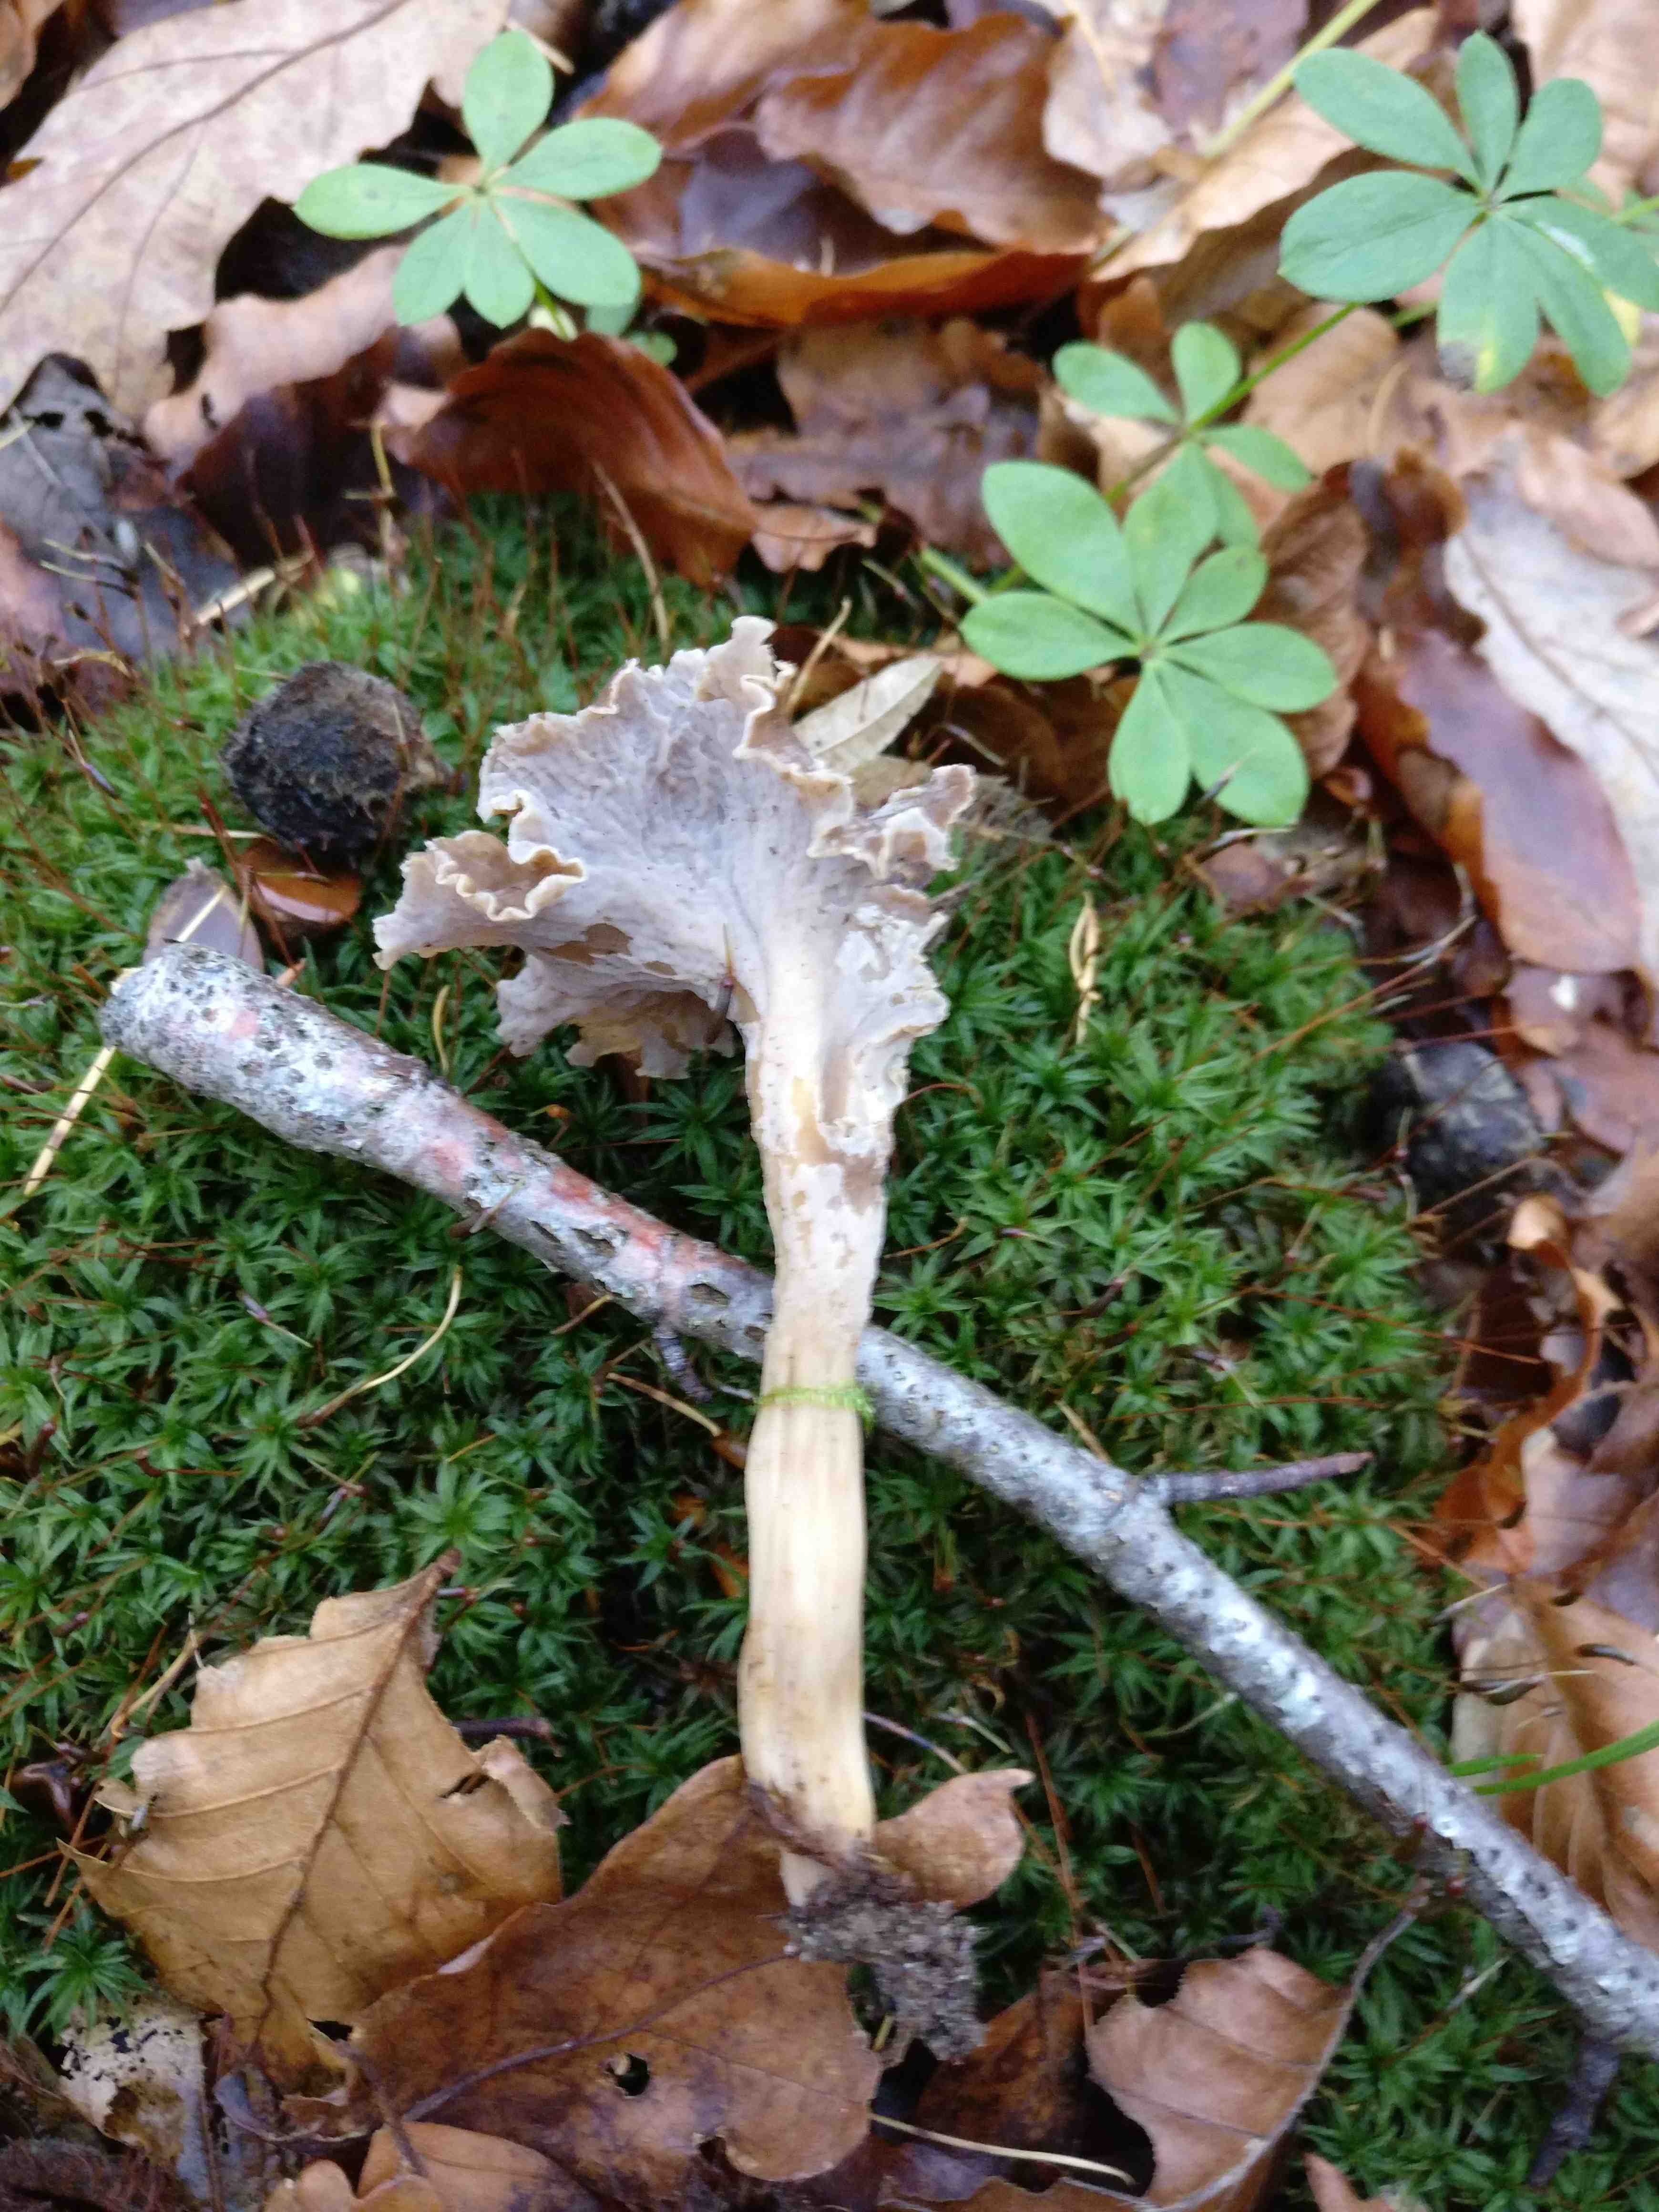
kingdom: Fungi
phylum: Basidiomycota
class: Agaricomycetes
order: Cantharellales
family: Hydnaceae
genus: Craterellus
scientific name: Craterellus undulatus
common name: liden kantarel
